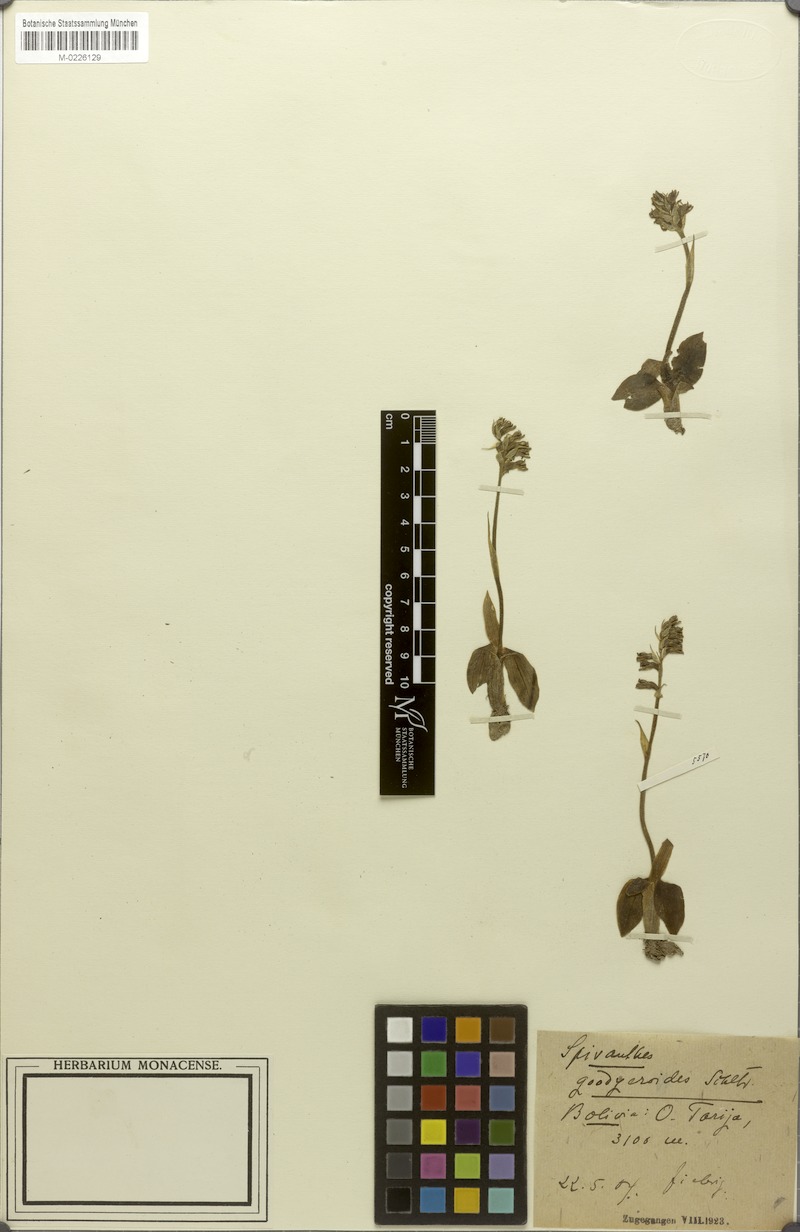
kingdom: Plantae
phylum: Tracheophyta
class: Liliopsida
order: Asparagales
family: Orchidaceae
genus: Cyclopogon
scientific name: Cyclopogon goodyeroides
